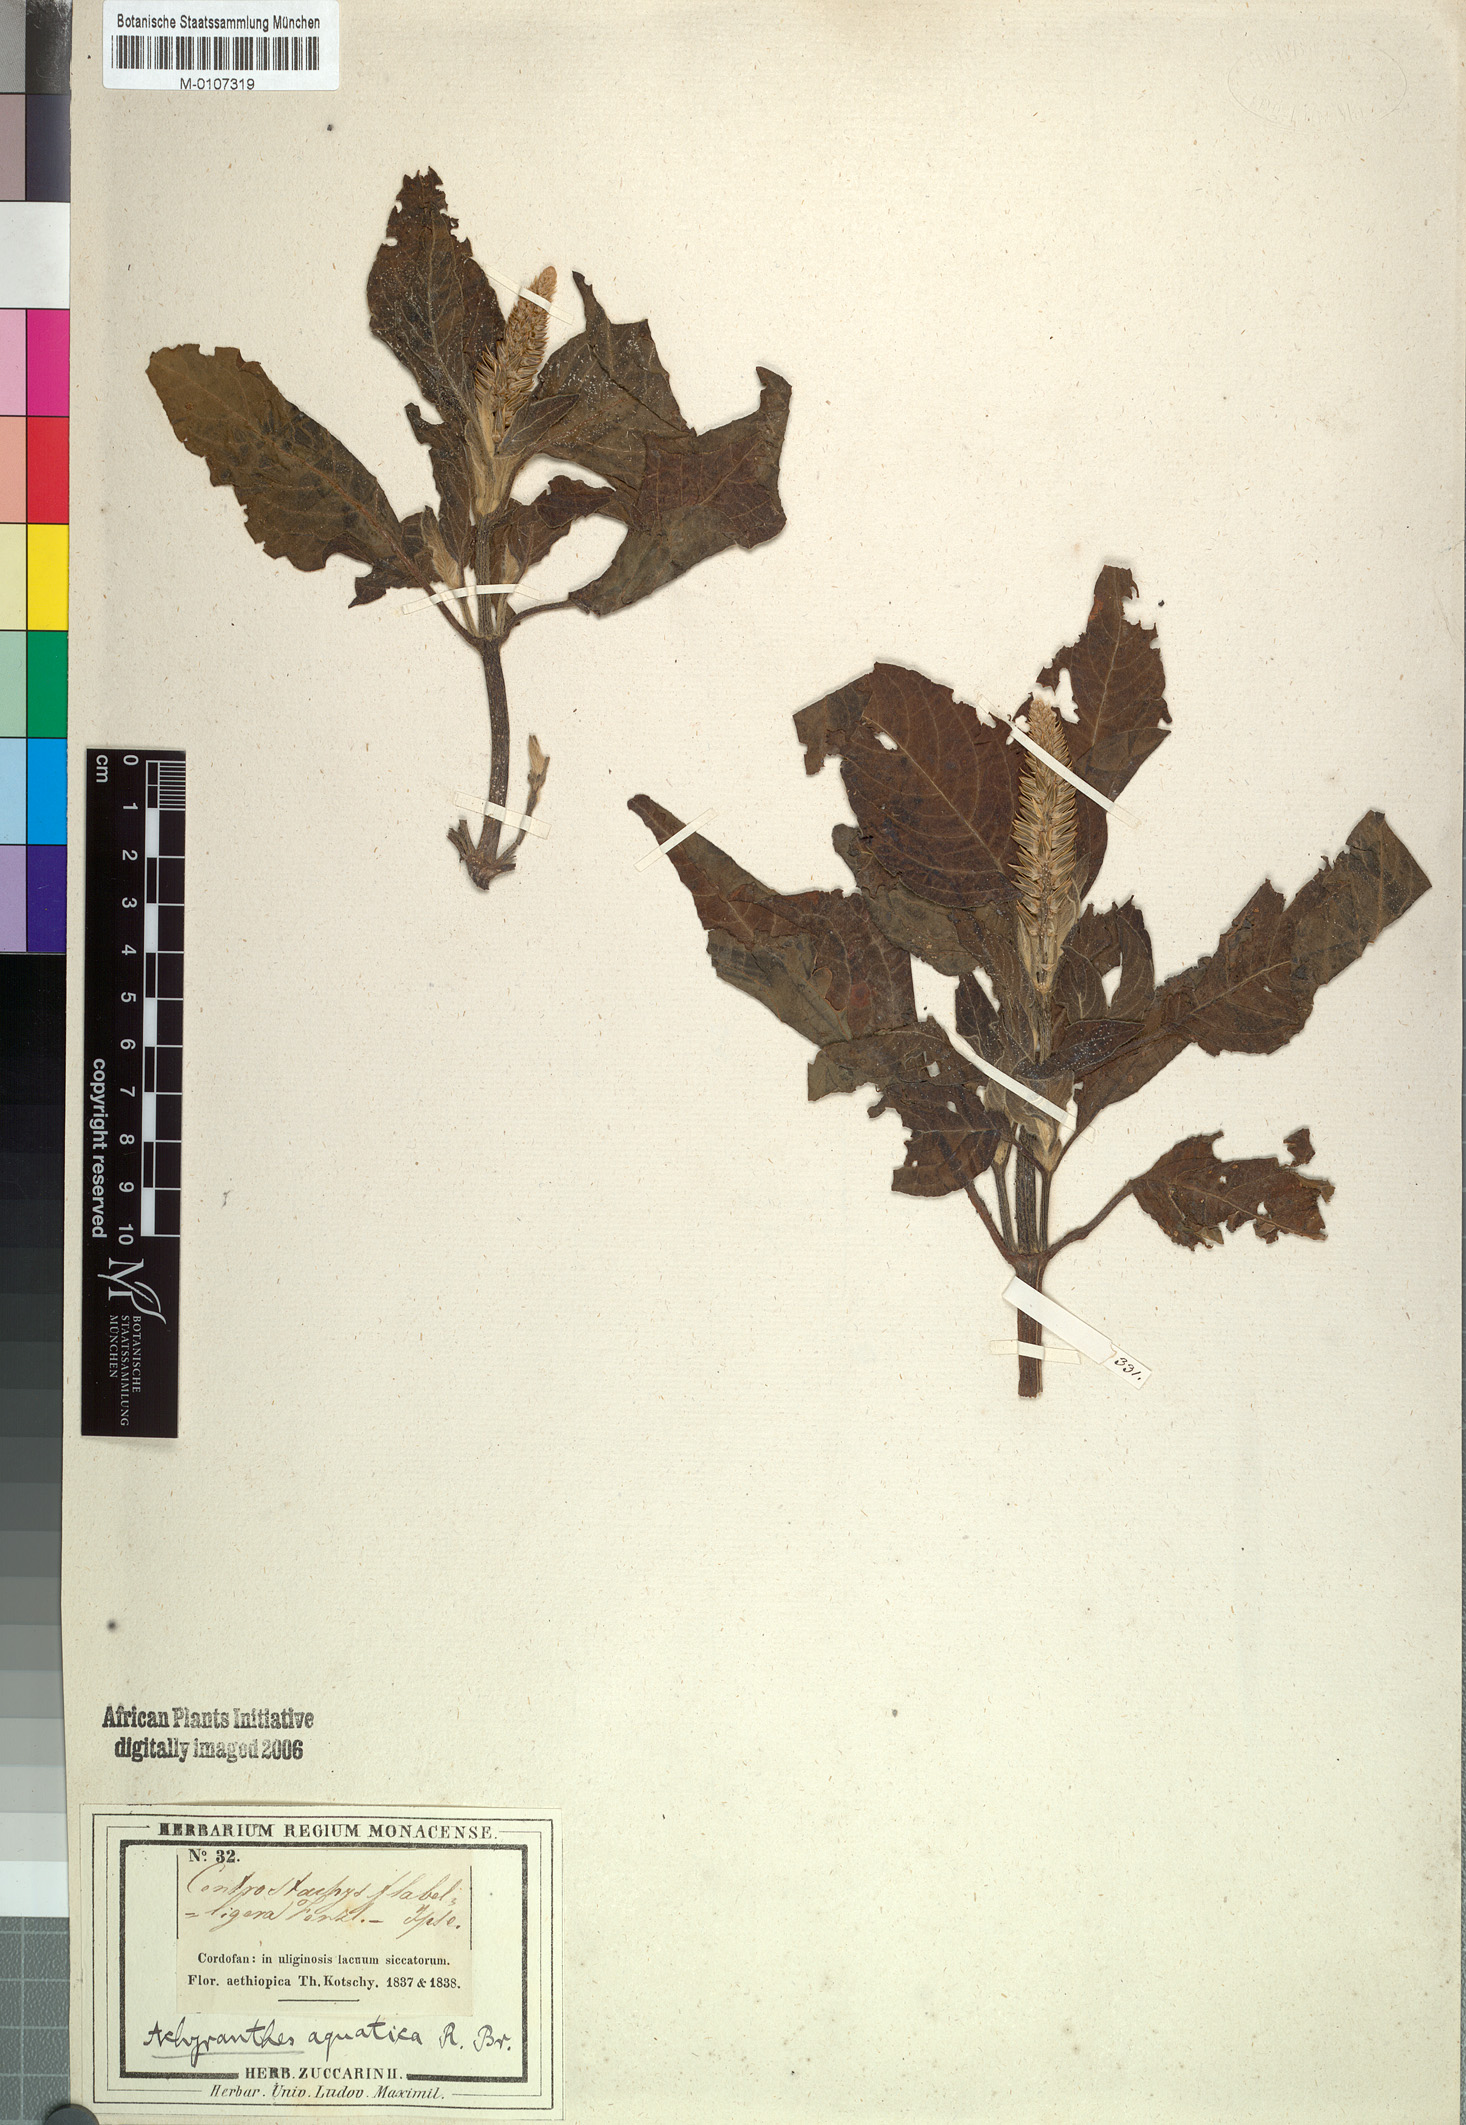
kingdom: Plantae
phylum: Tracheophyta
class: Magnoliopsida
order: Caryophyllales
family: Amaranthaceae
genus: Centrostachys
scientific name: Centrostachys aquatica
